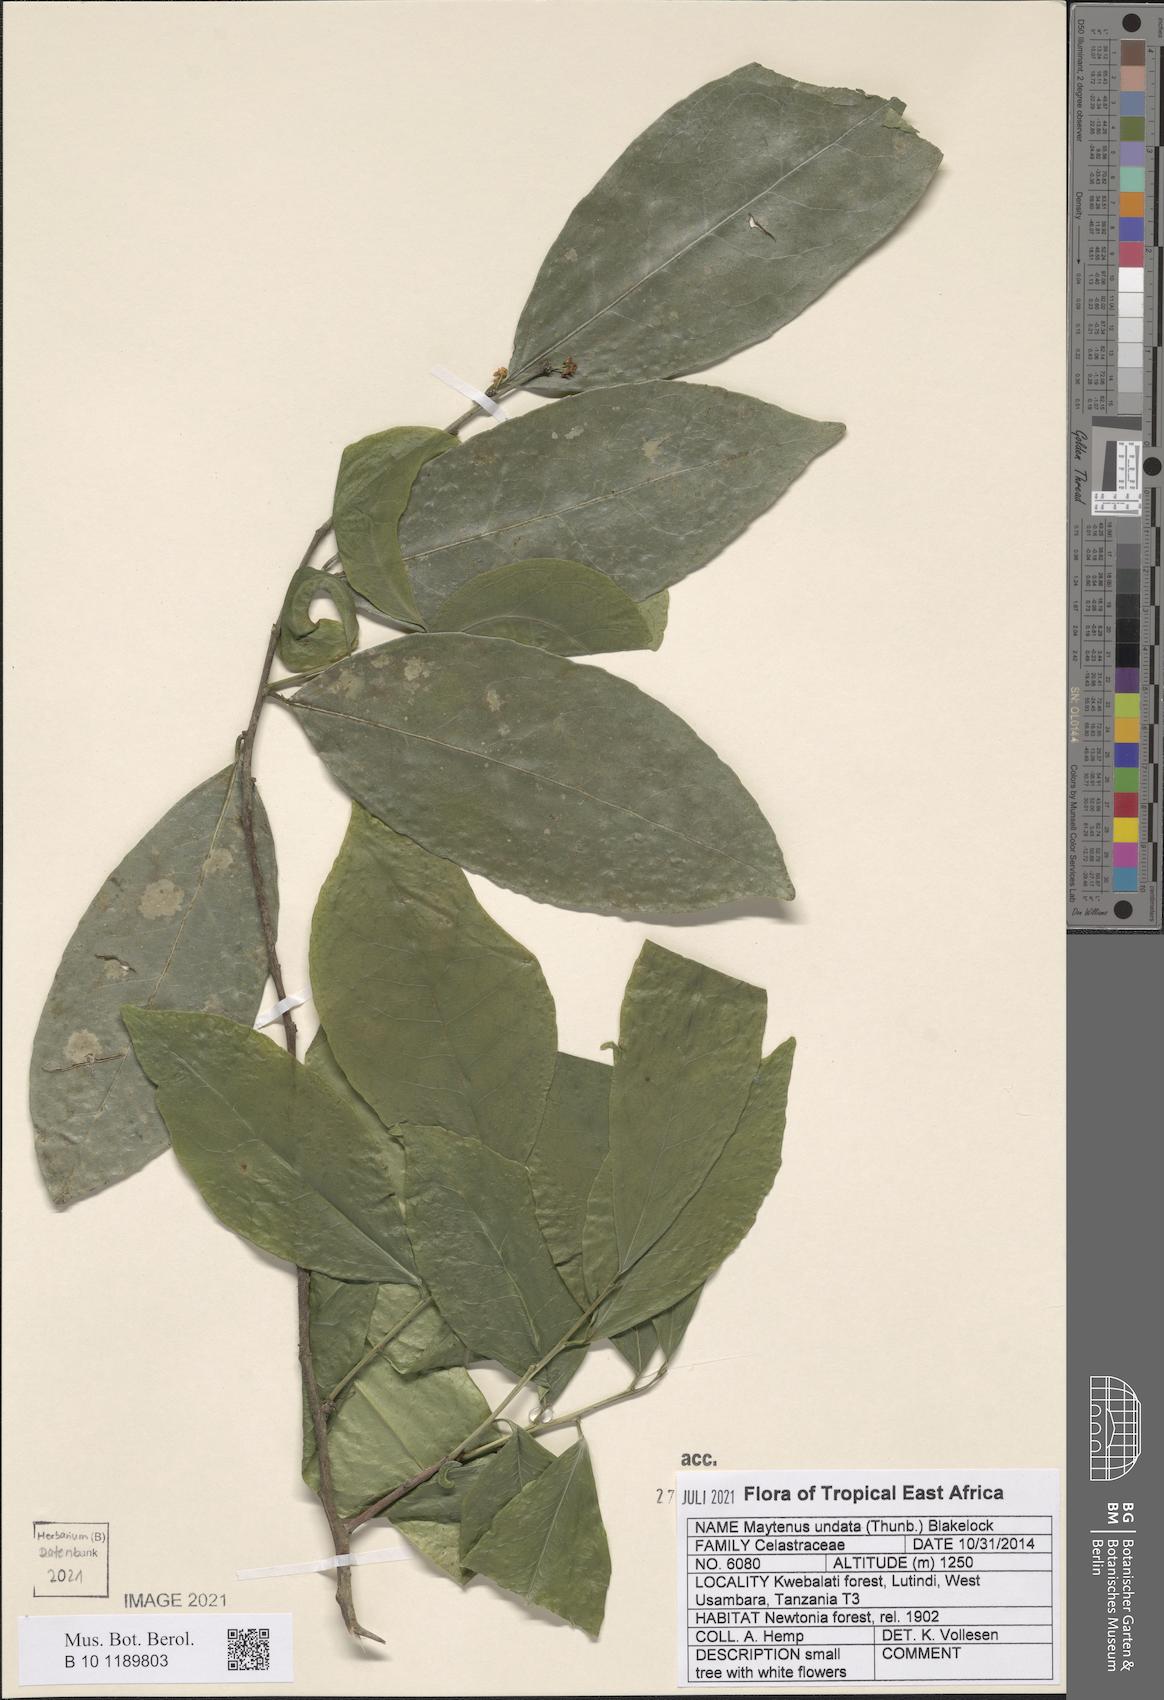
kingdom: Plantae
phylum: Tracheophyta
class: Magnoliopsida
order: Celastrales
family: Celastraceae
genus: Gymnosporia
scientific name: Gymnosporia undata
